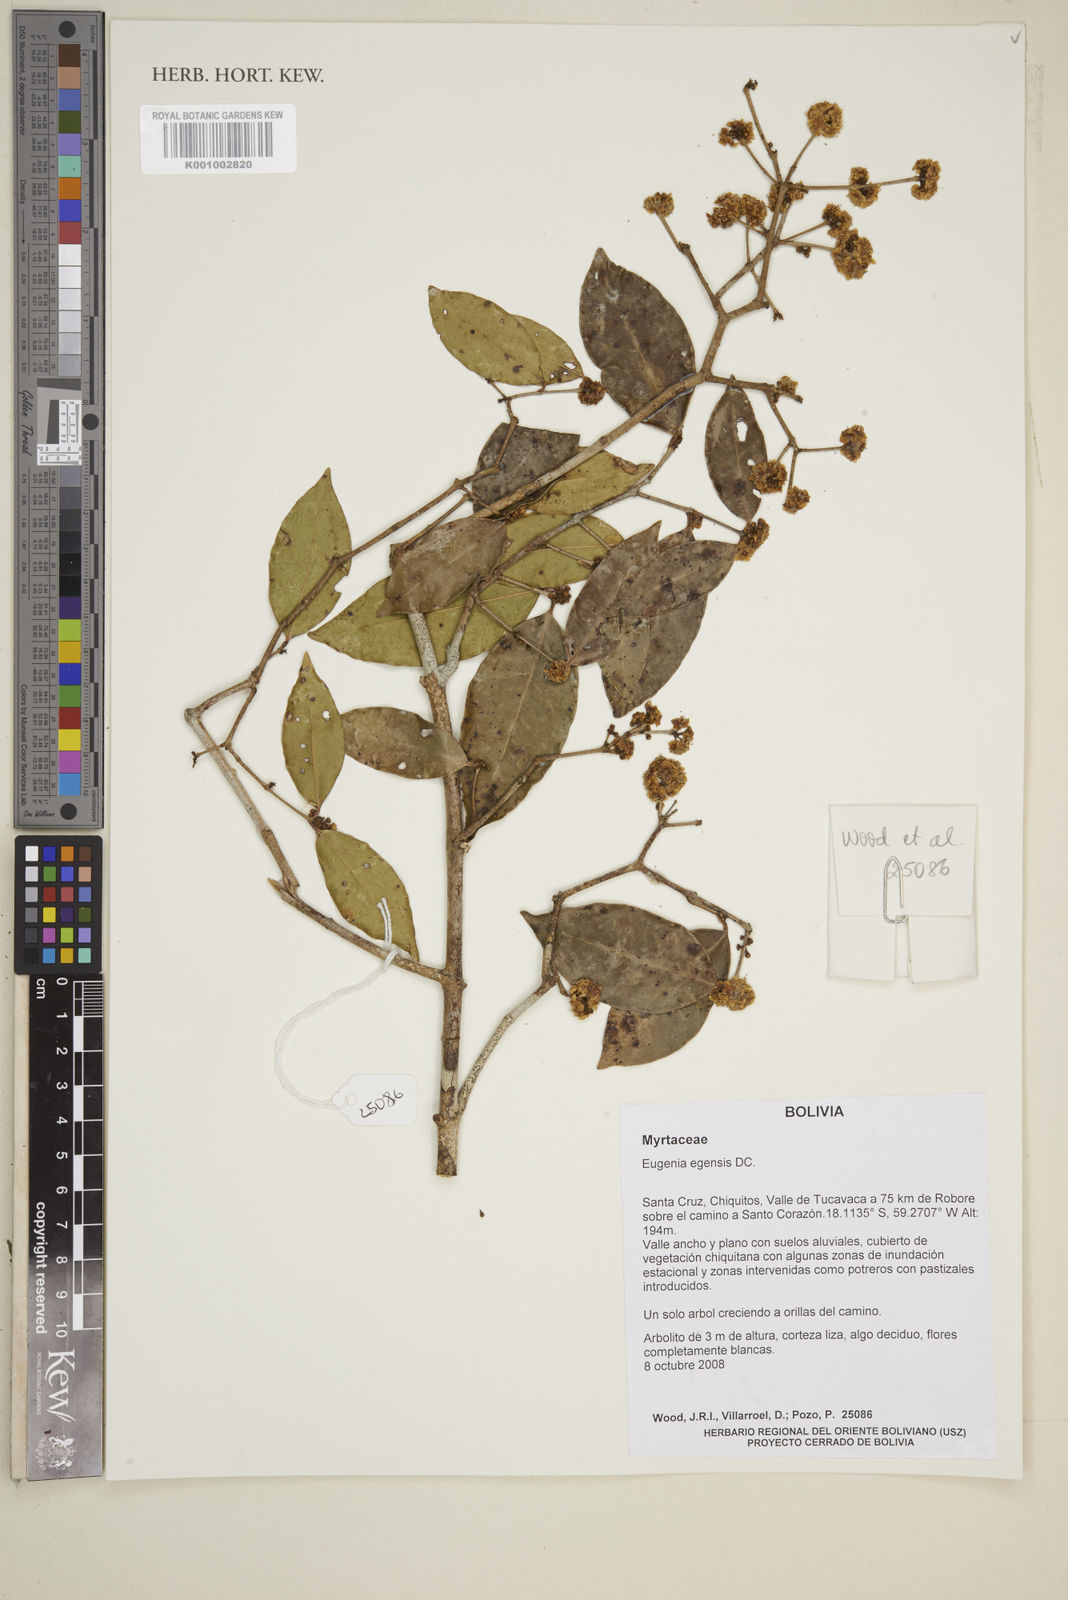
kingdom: Plantae
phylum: Tracheophyta
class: Magnoliopsida
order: Myrtales
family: Myrtaceae
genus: Eugenia
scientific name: Eugenia egensis
